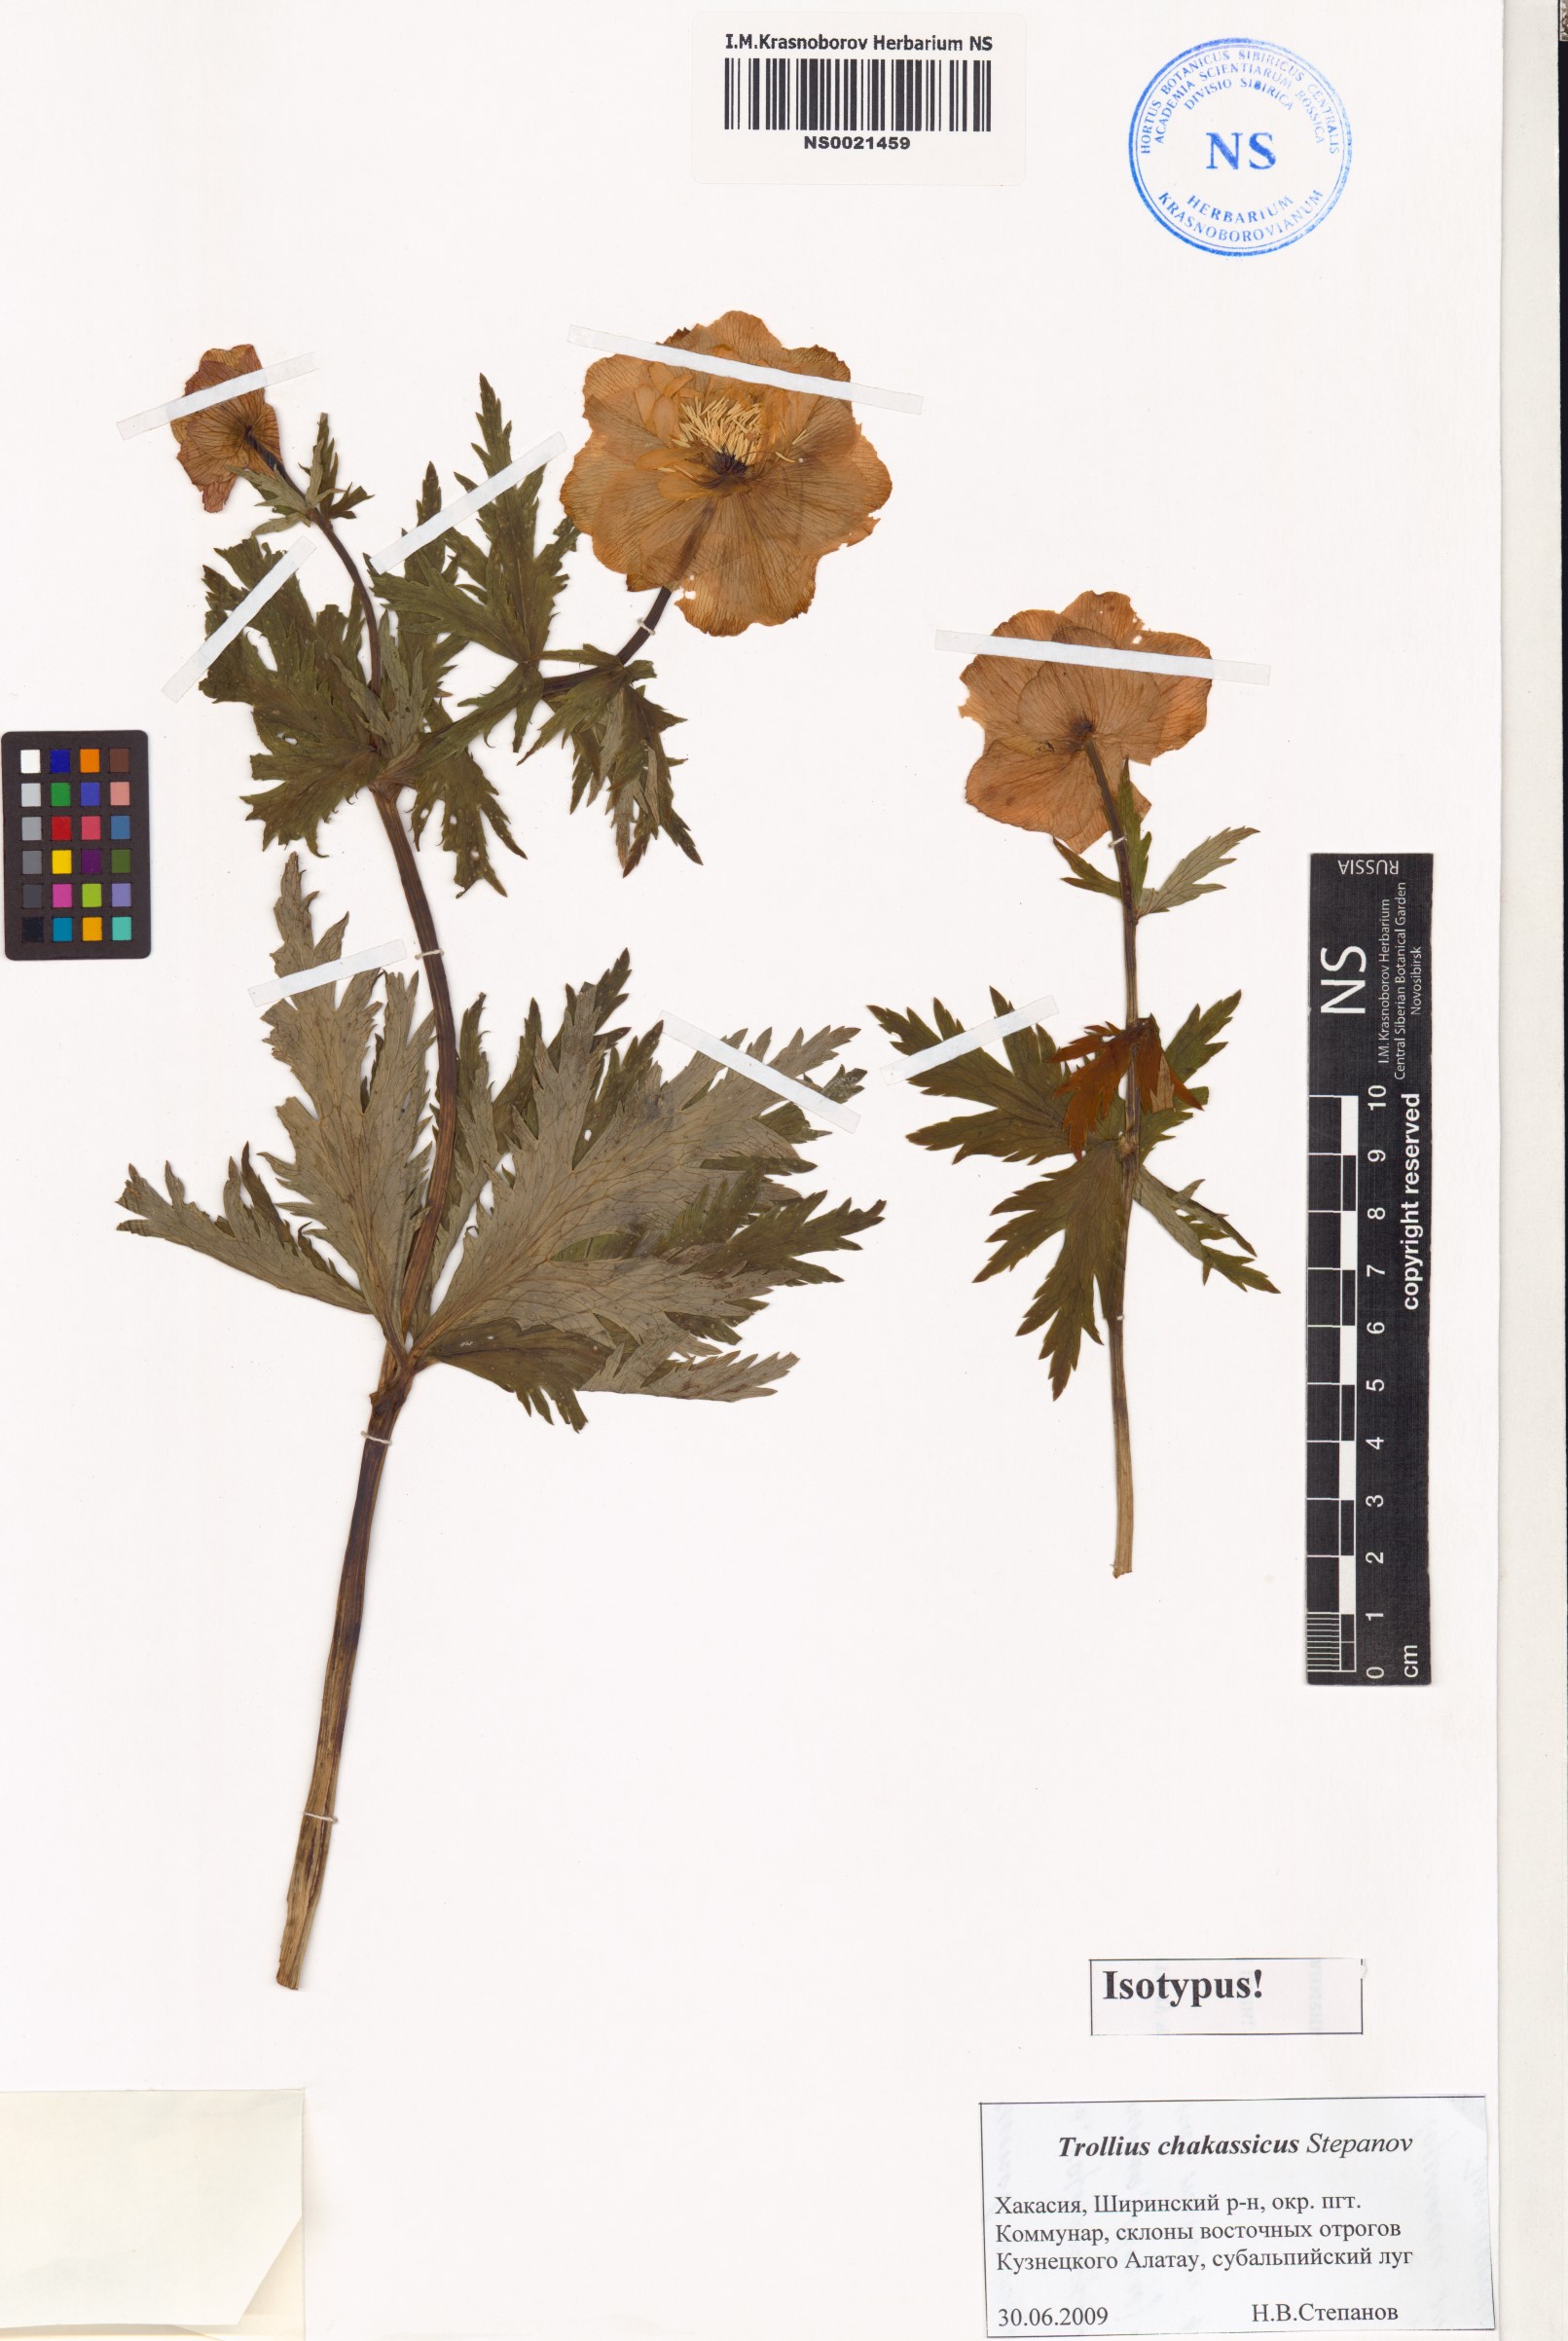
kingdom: Plantae
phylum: Tracheophyta
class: Magnoliopsida
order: Ranunculales
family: Ranunculaceae
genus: Trollius
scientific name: Trollius
